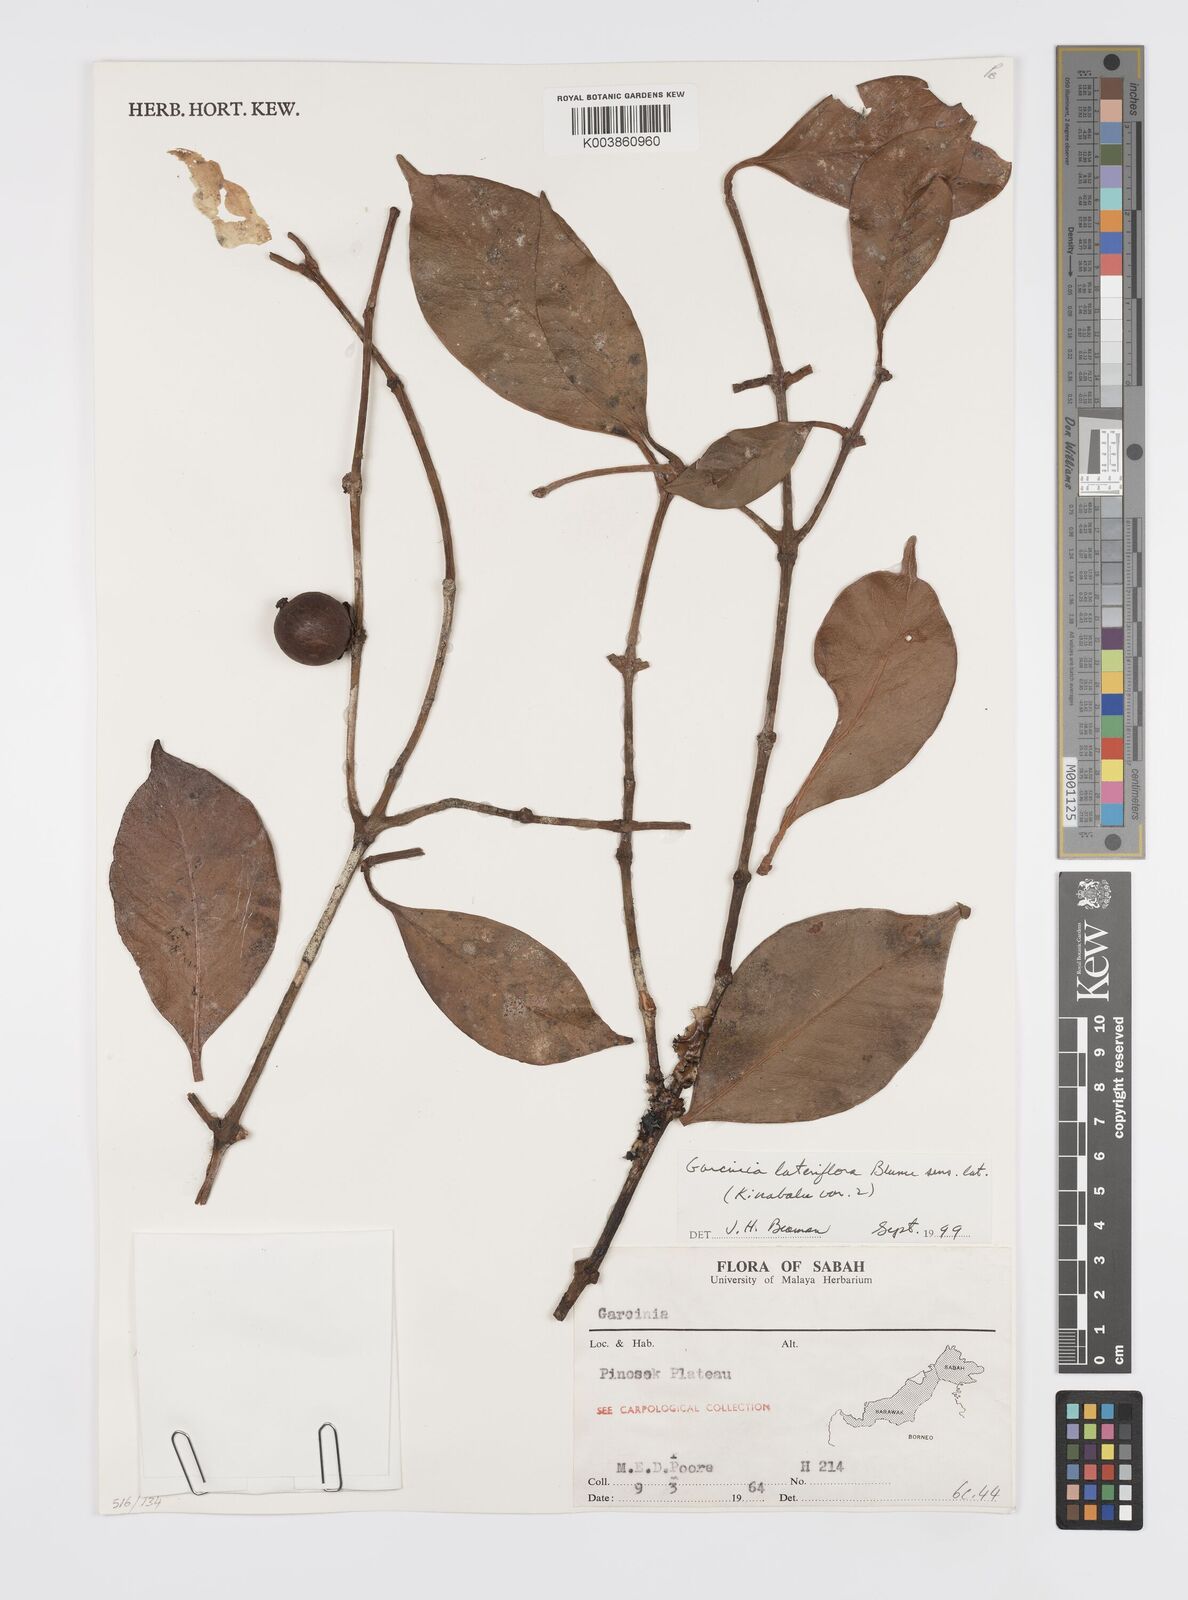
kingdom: Plantae
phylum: Tracheophyta
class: Magnoliopsida
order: Malpighiales
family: Clusiaceae
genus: Garcinia
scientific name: Garcinia lateriflora
